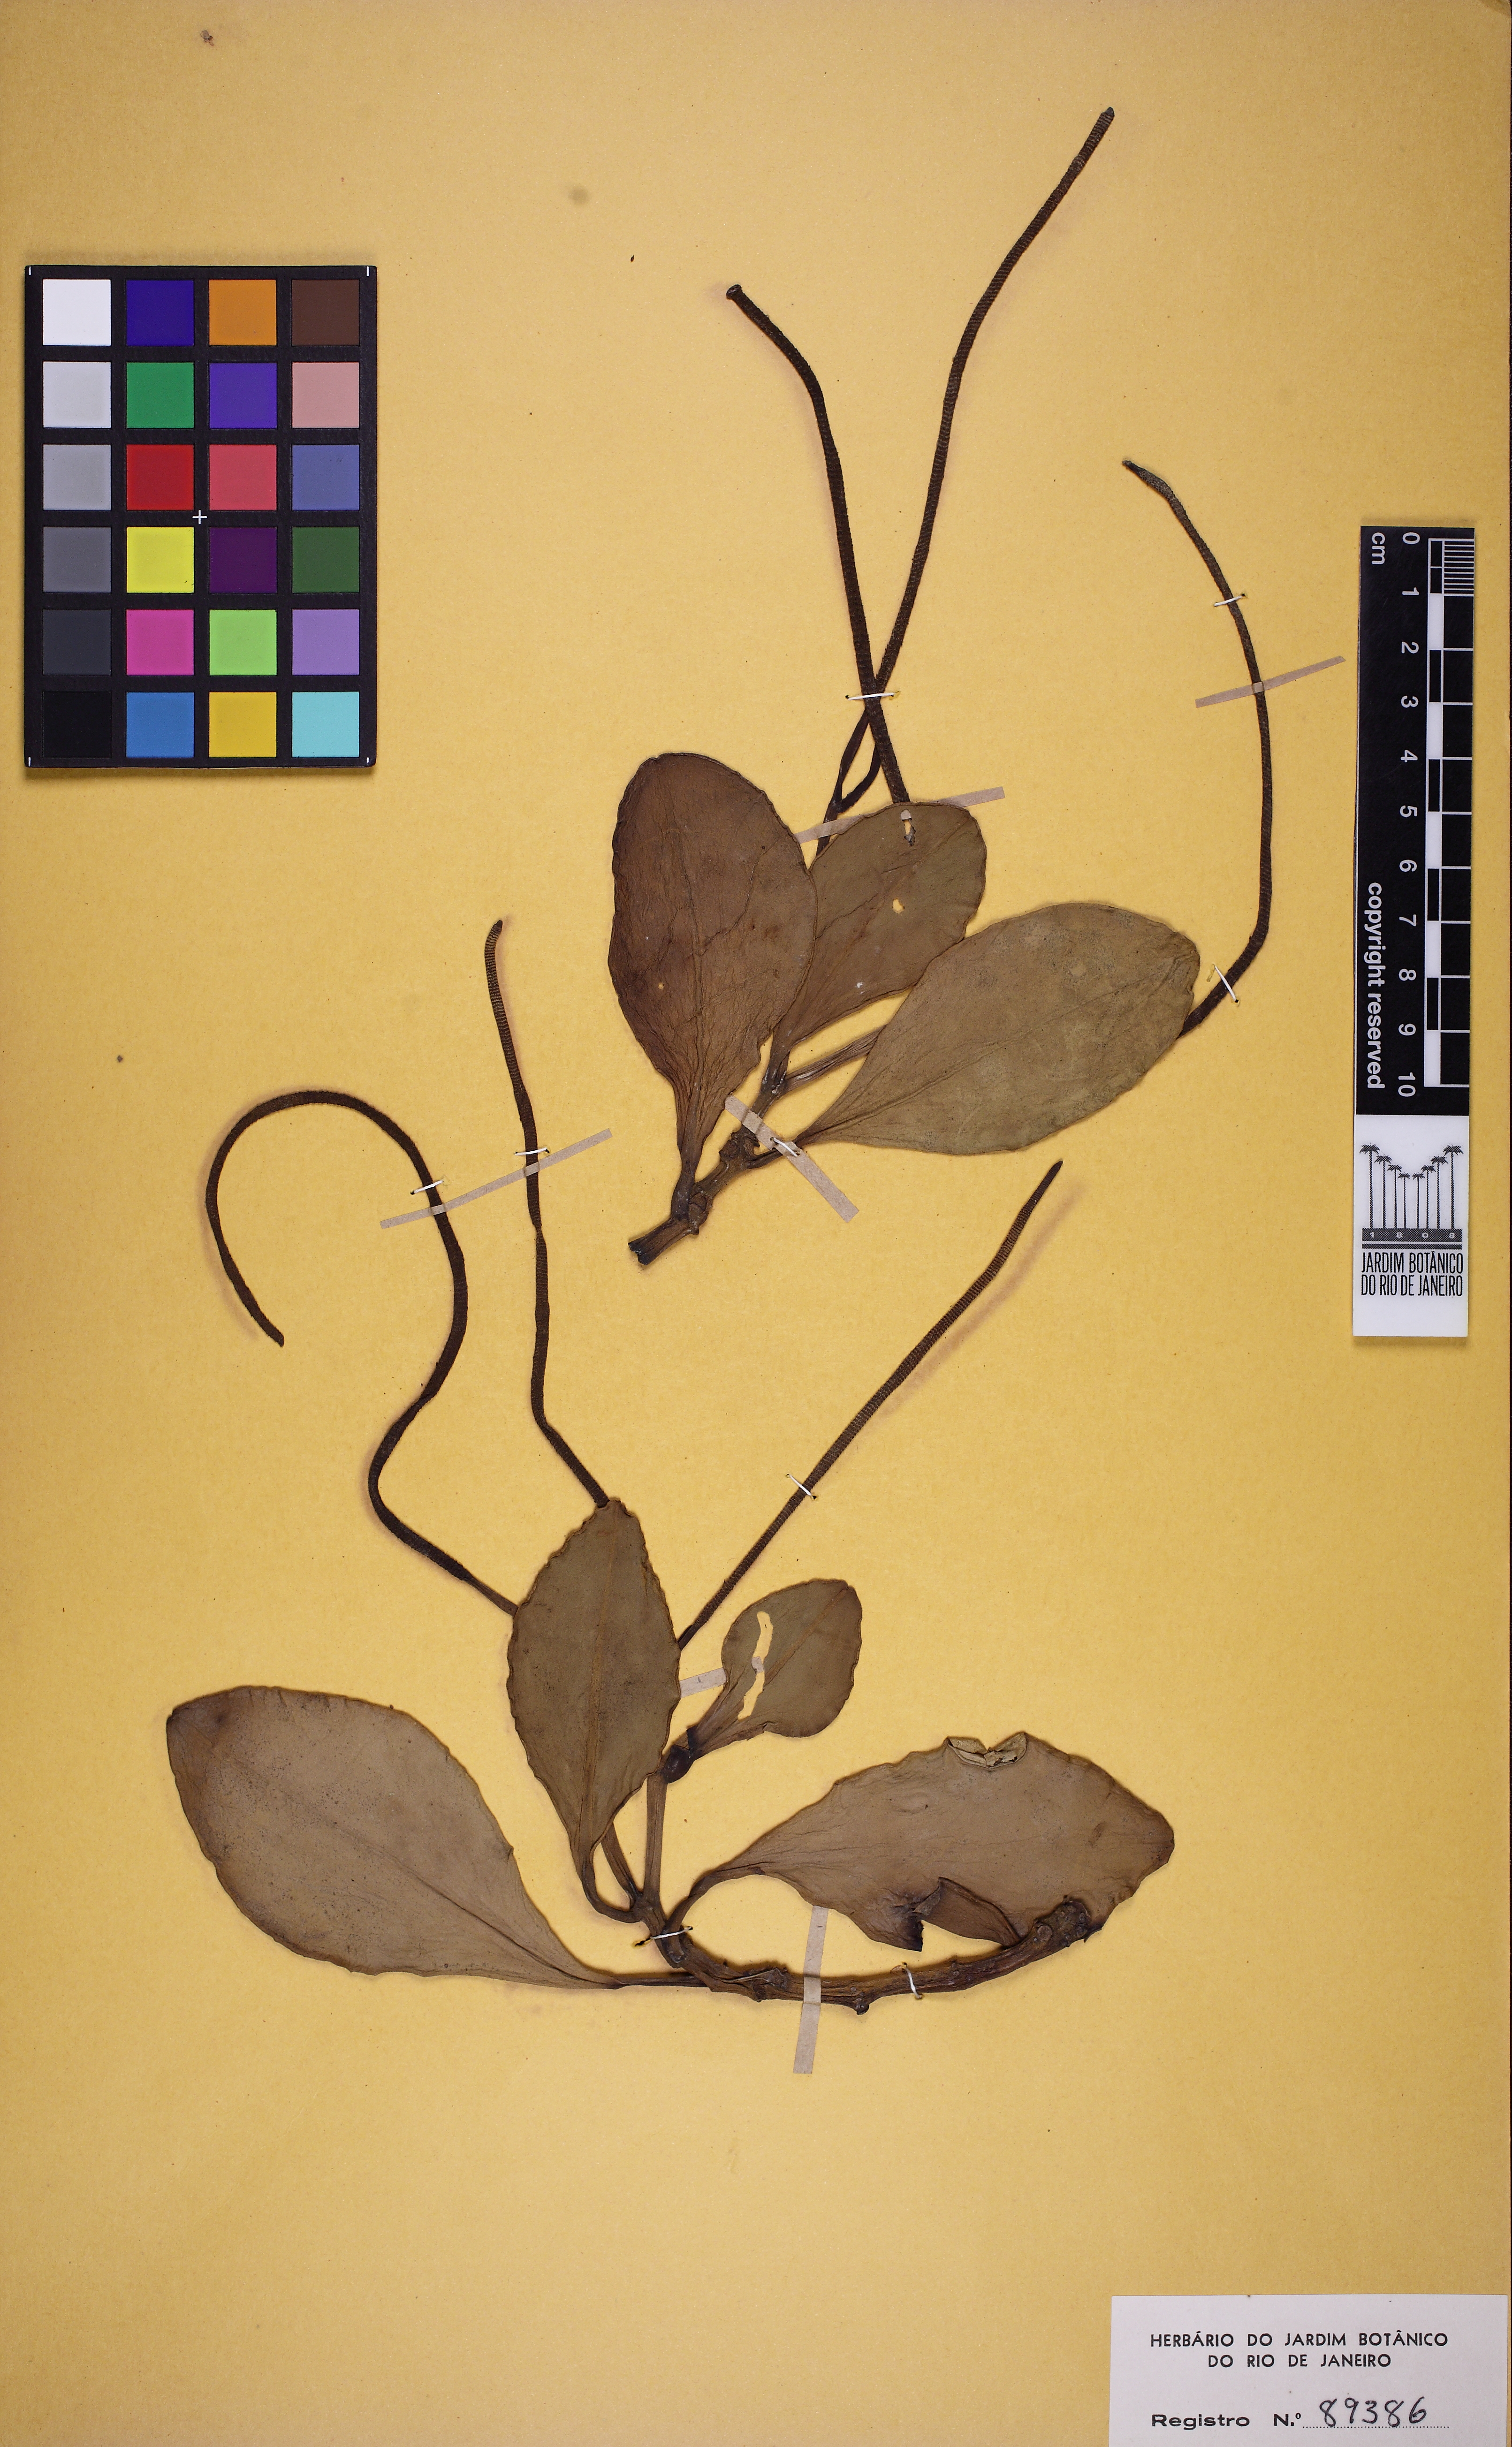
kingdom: Plantae
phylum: Tracheophyta
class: Magnoliopsida
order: Piperales
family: Piperaceae
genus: Peperomia
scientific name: Peperomia magnoliifolia
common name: Spoonleaf peperomia
